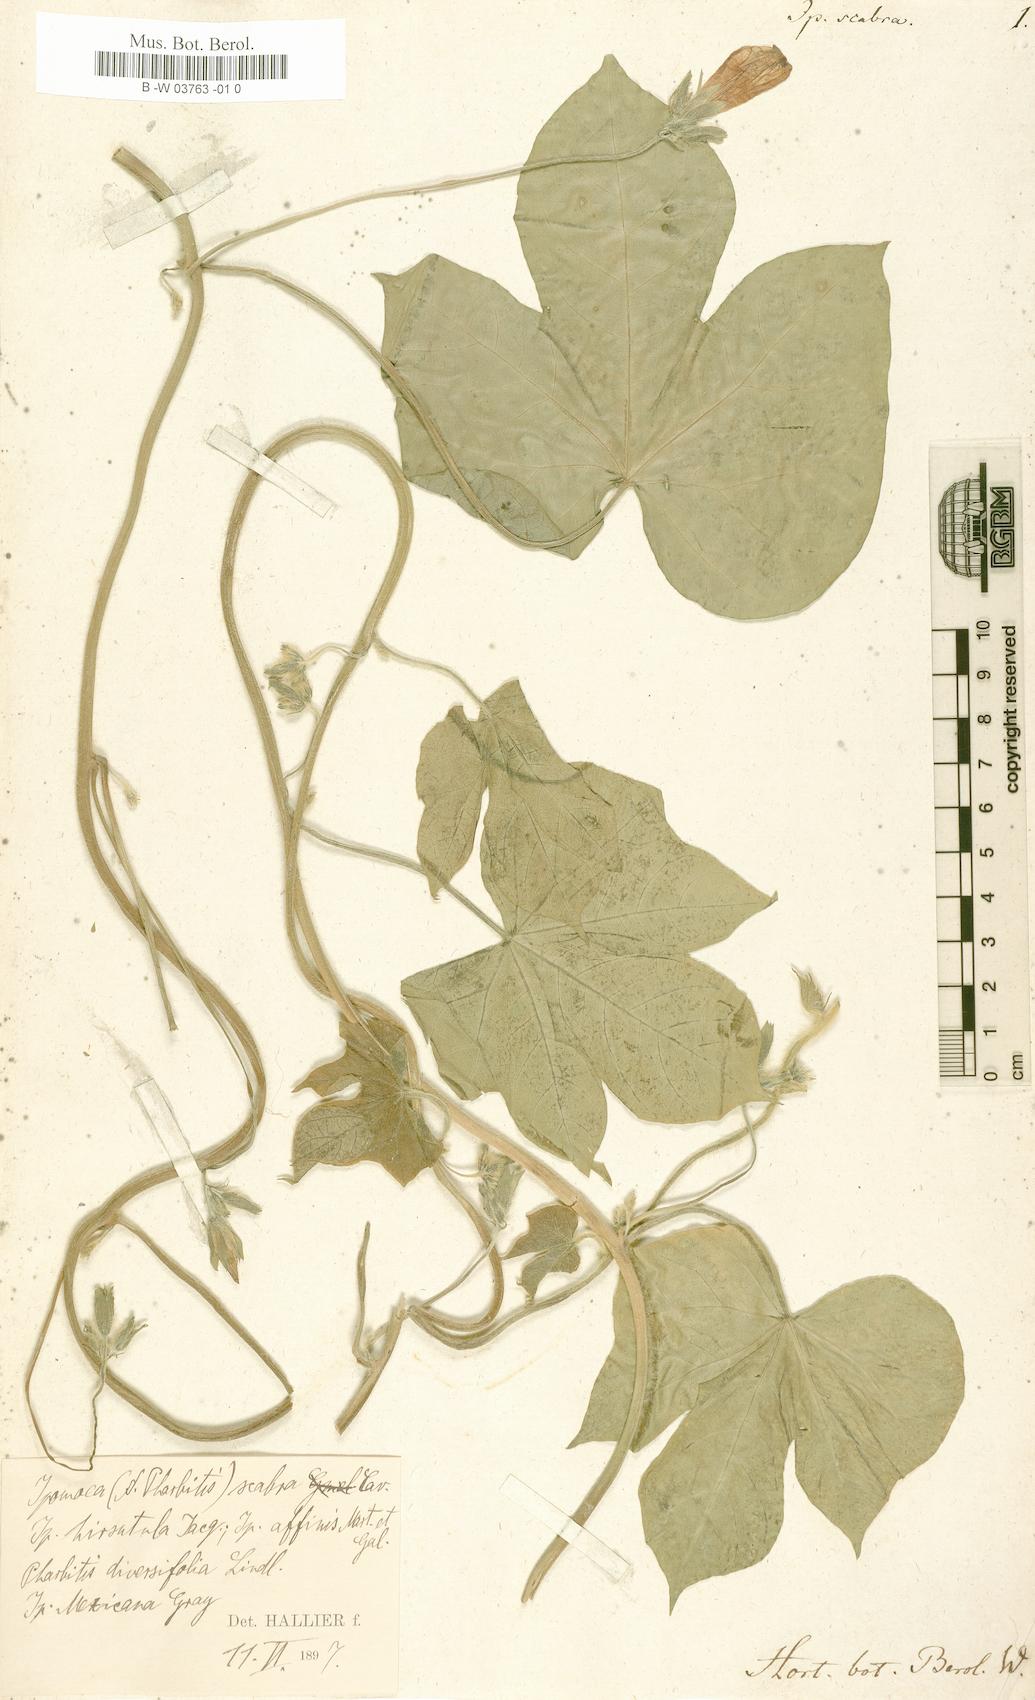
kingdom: Plantae
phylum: Tracheophyta
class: Magnoliopsida
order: Solanales
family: Convolvulaceae
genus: Ipomoea
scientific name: Ipomoea
